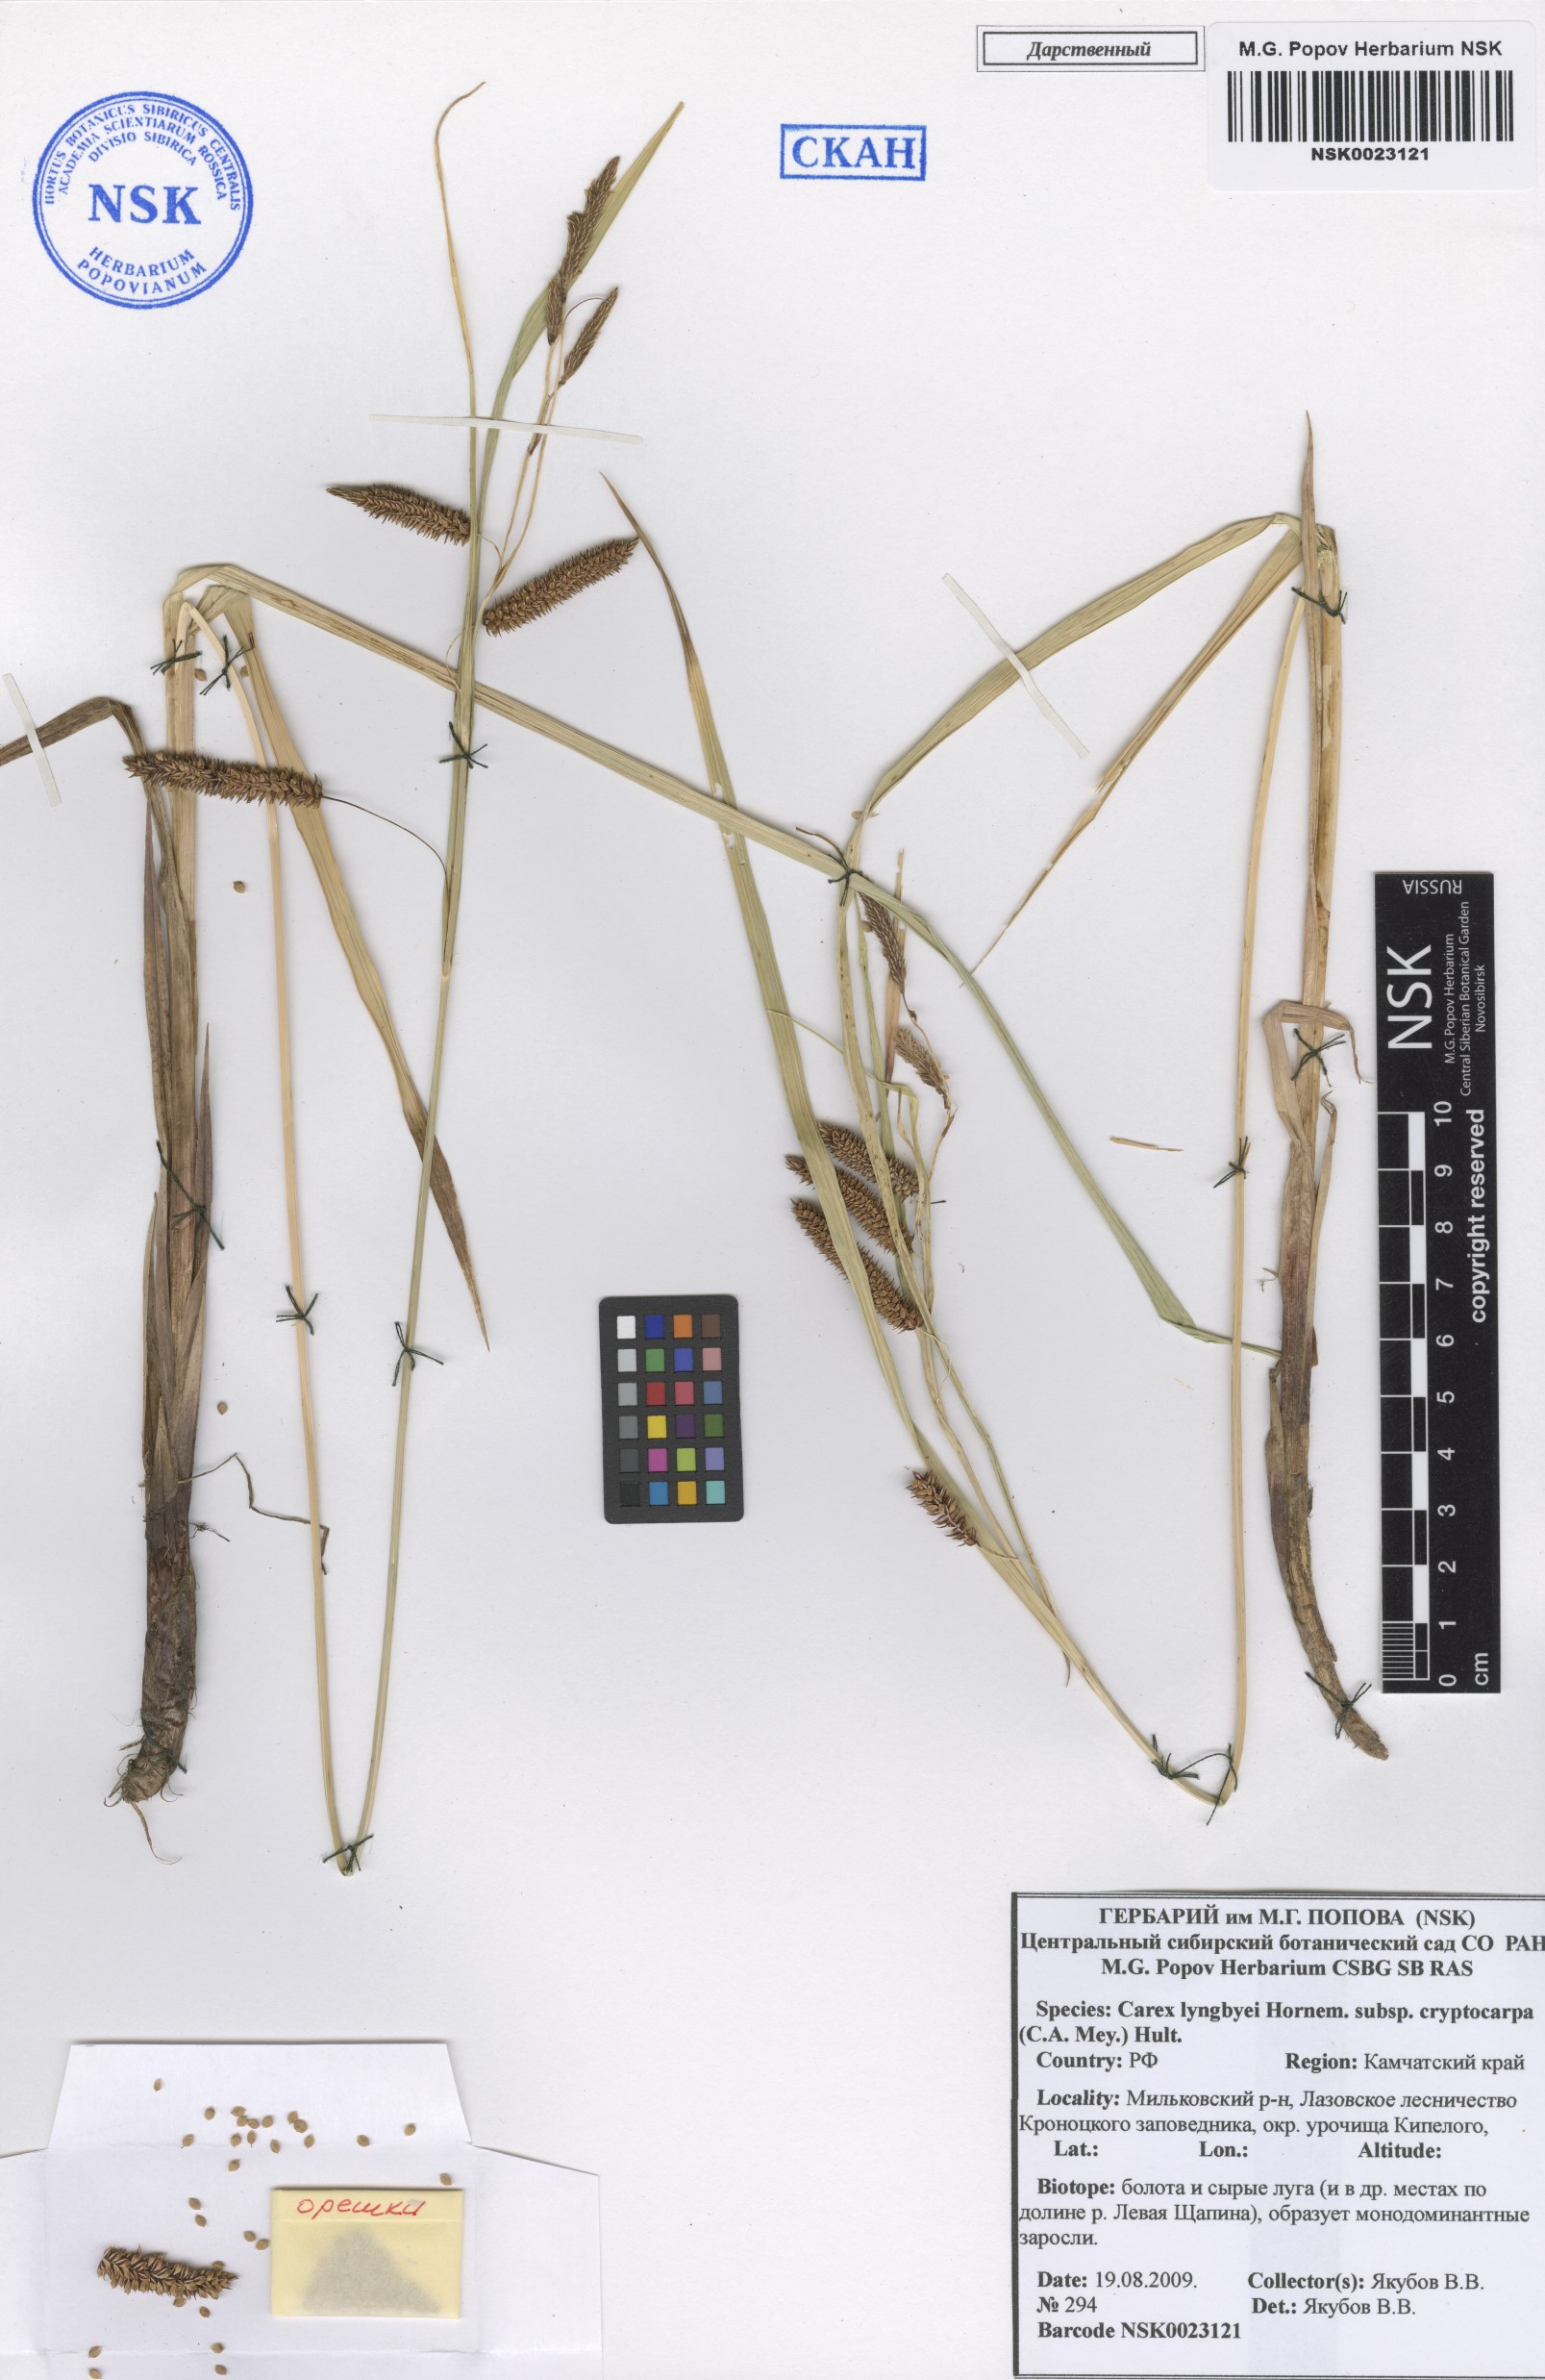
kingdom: Plantae
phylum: Tracheophyta
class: Liliopsida
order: Poales
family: Cyperaceae
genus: Carex
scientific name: Carex lyngbyei
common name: Lyngbye's sedge
